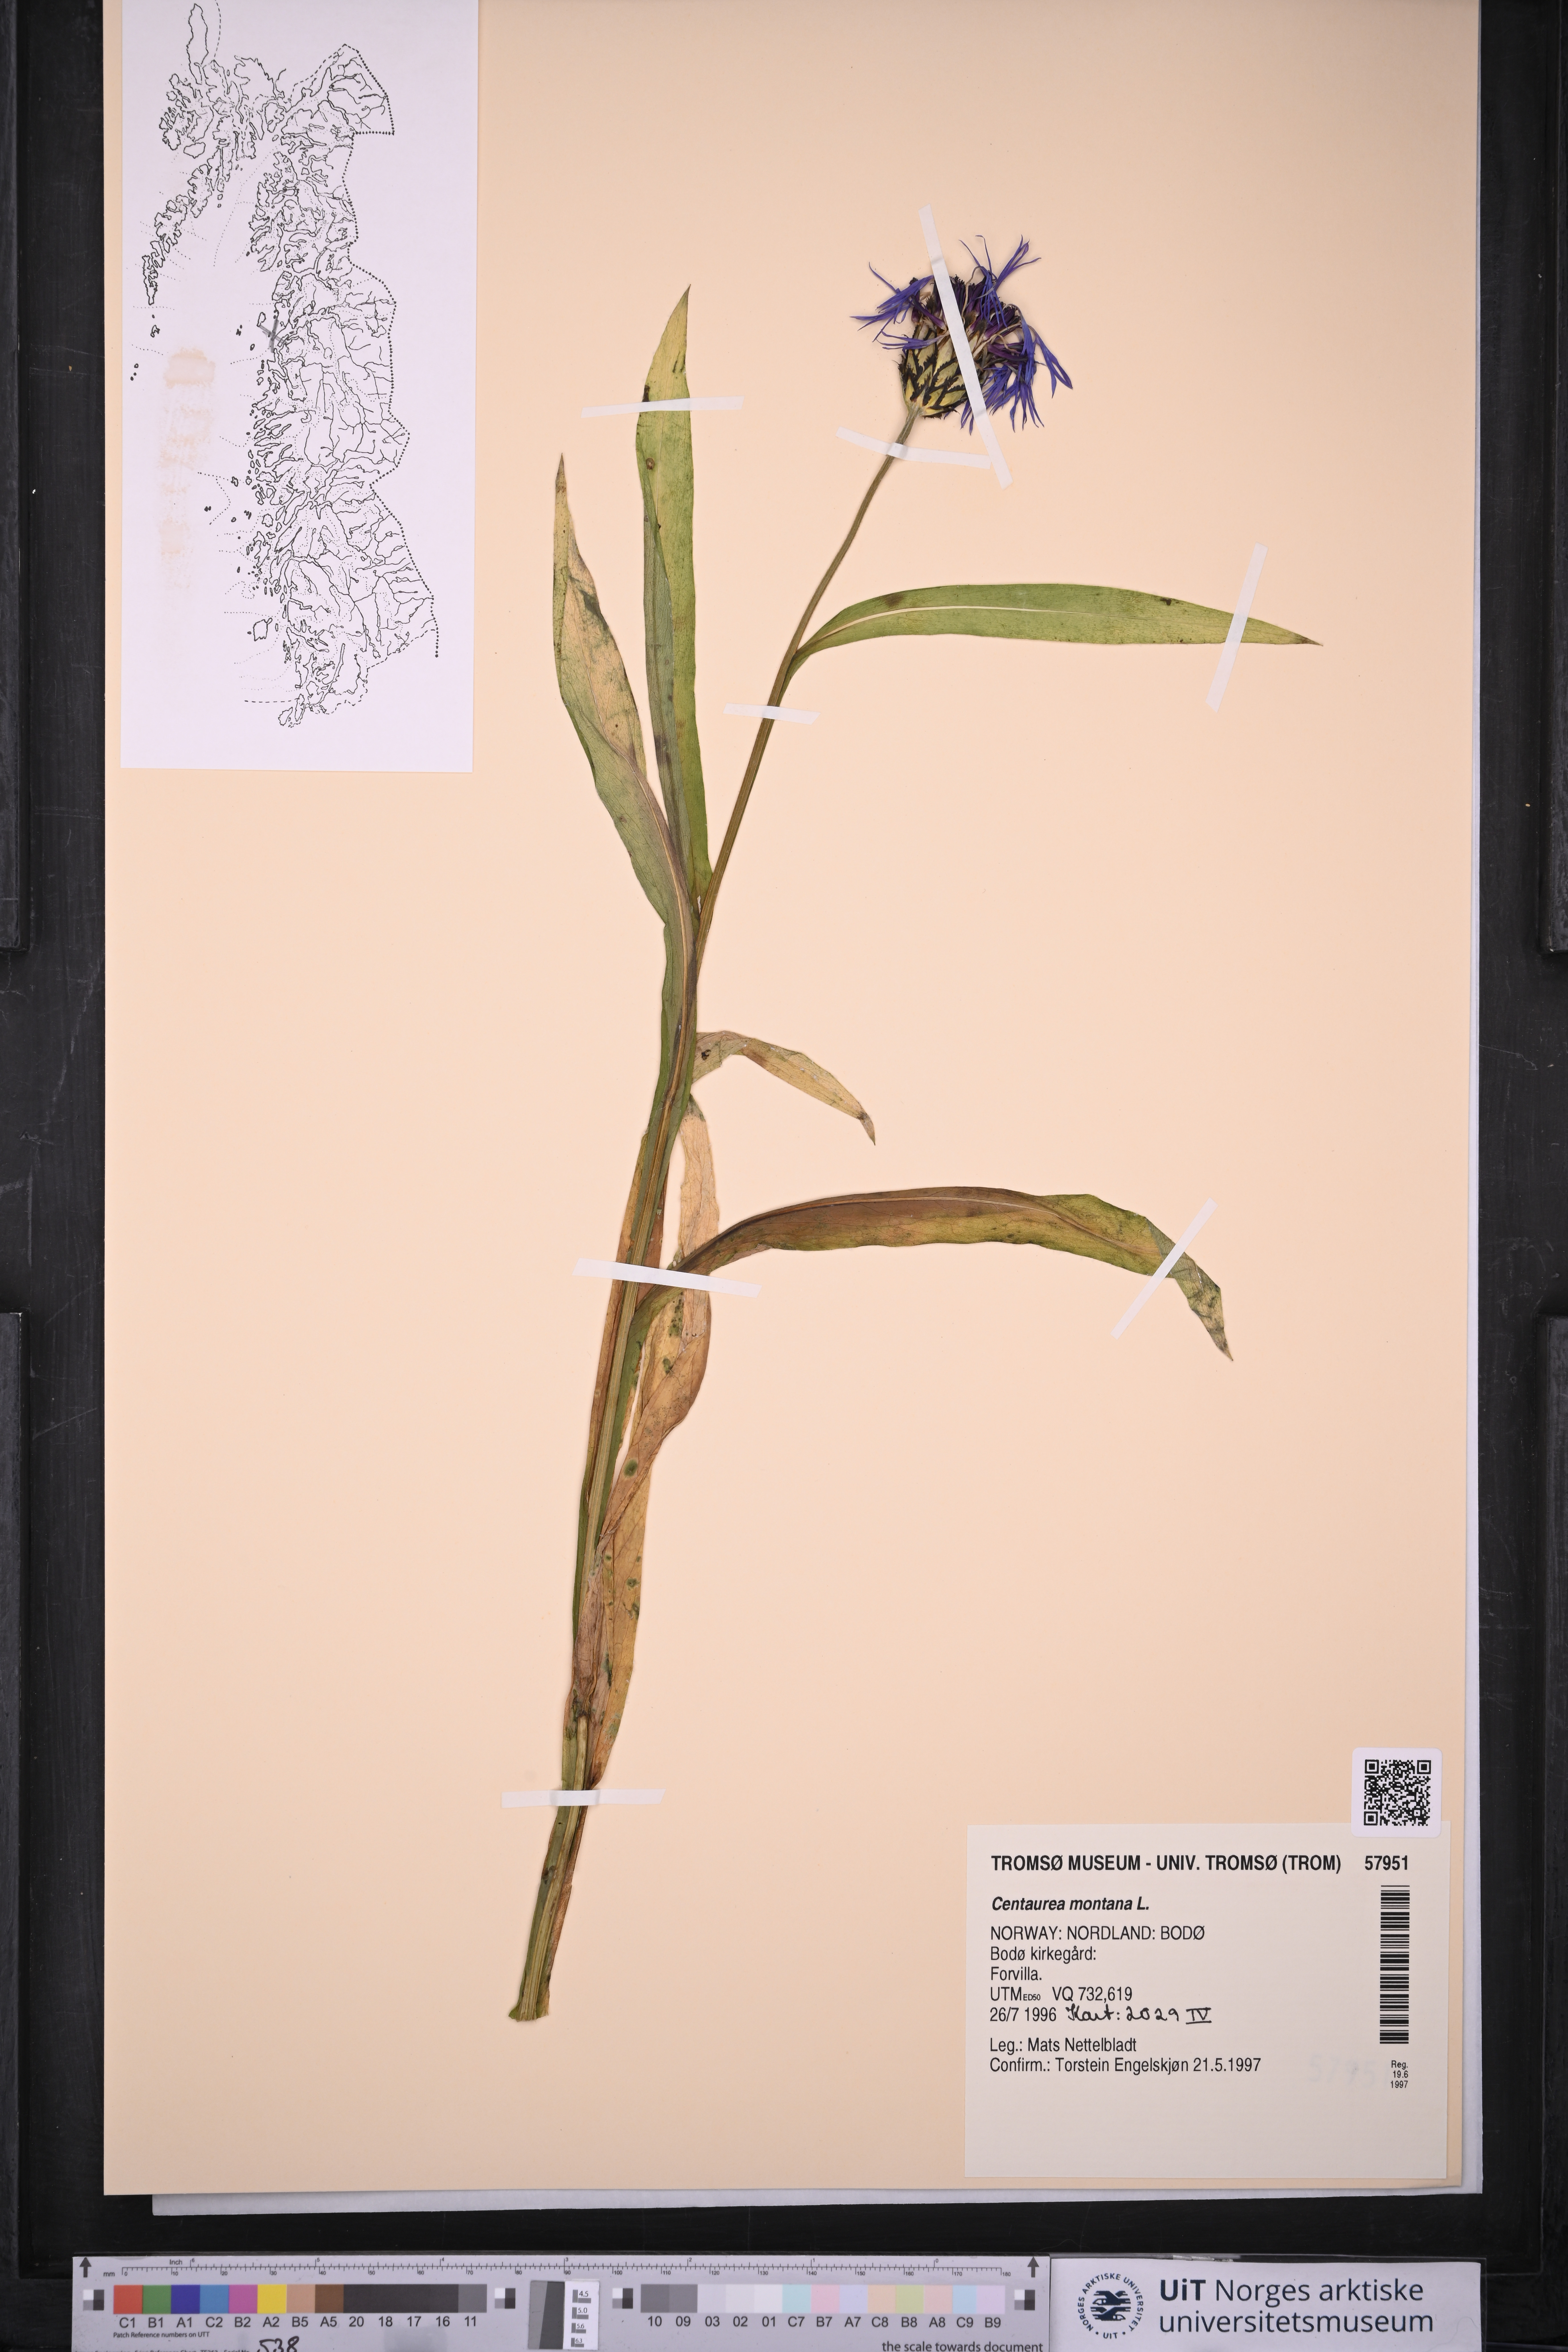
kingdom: Plantae
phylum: Tracheophyta
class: Magnoliopsida
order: Asterales
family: Asteraceae
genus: Centaurea
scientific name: Centaurea montana
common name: Perennial cornflower
